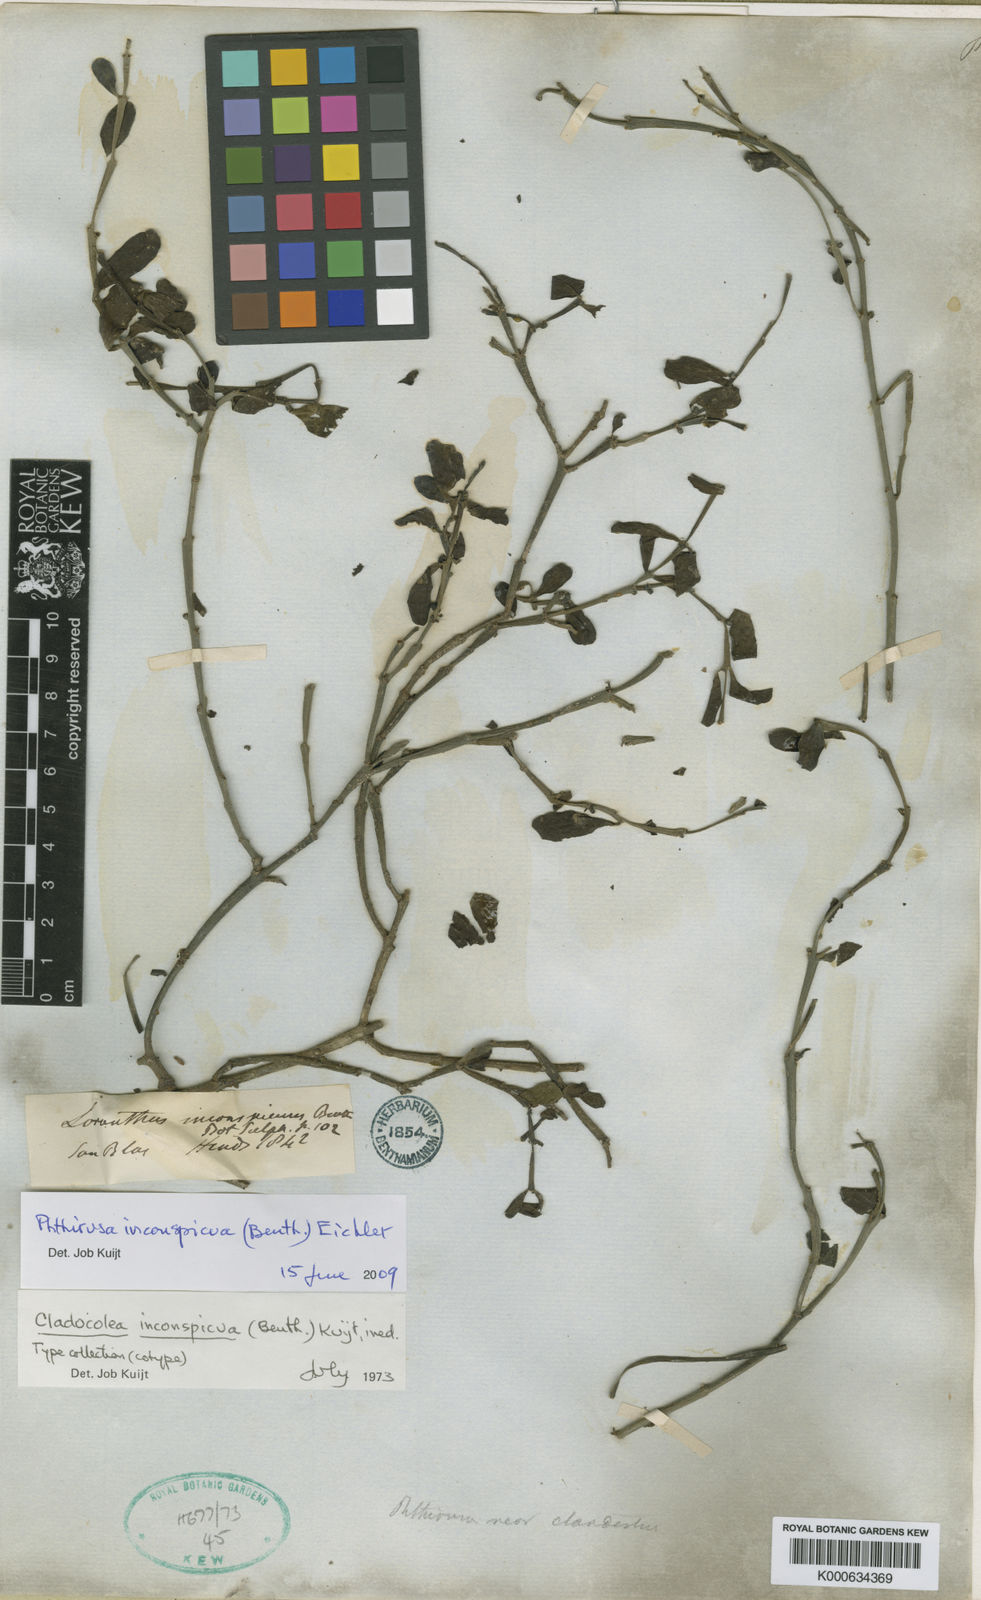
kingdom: Plantae
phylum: Tracheophyta
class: Magnoliopsida
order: Santalales
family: Loranthaceae
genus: Phthirusa
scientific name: Phthirusa inconspicua
